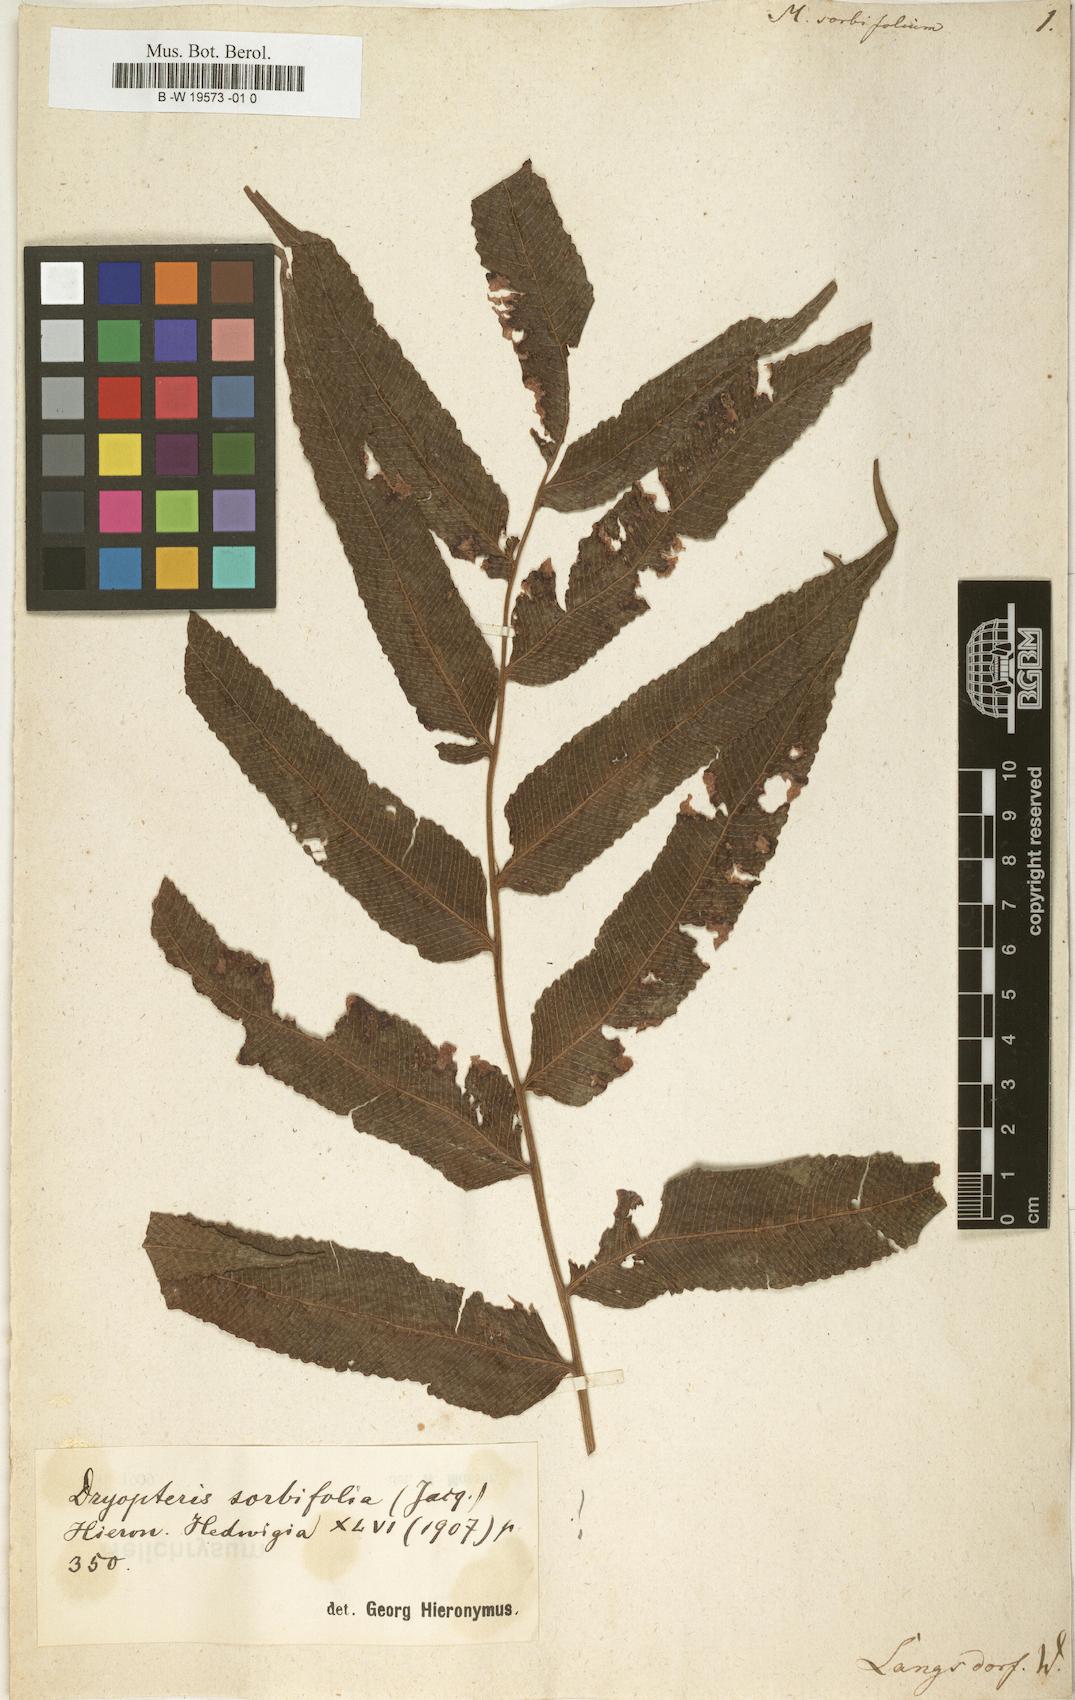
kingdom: Plantae
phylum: Tracheophyta
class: Polypodiopsida
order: Polypodiales
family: Thelypteridaceae
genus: Meniscium
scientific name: Meniscium reticulatum
